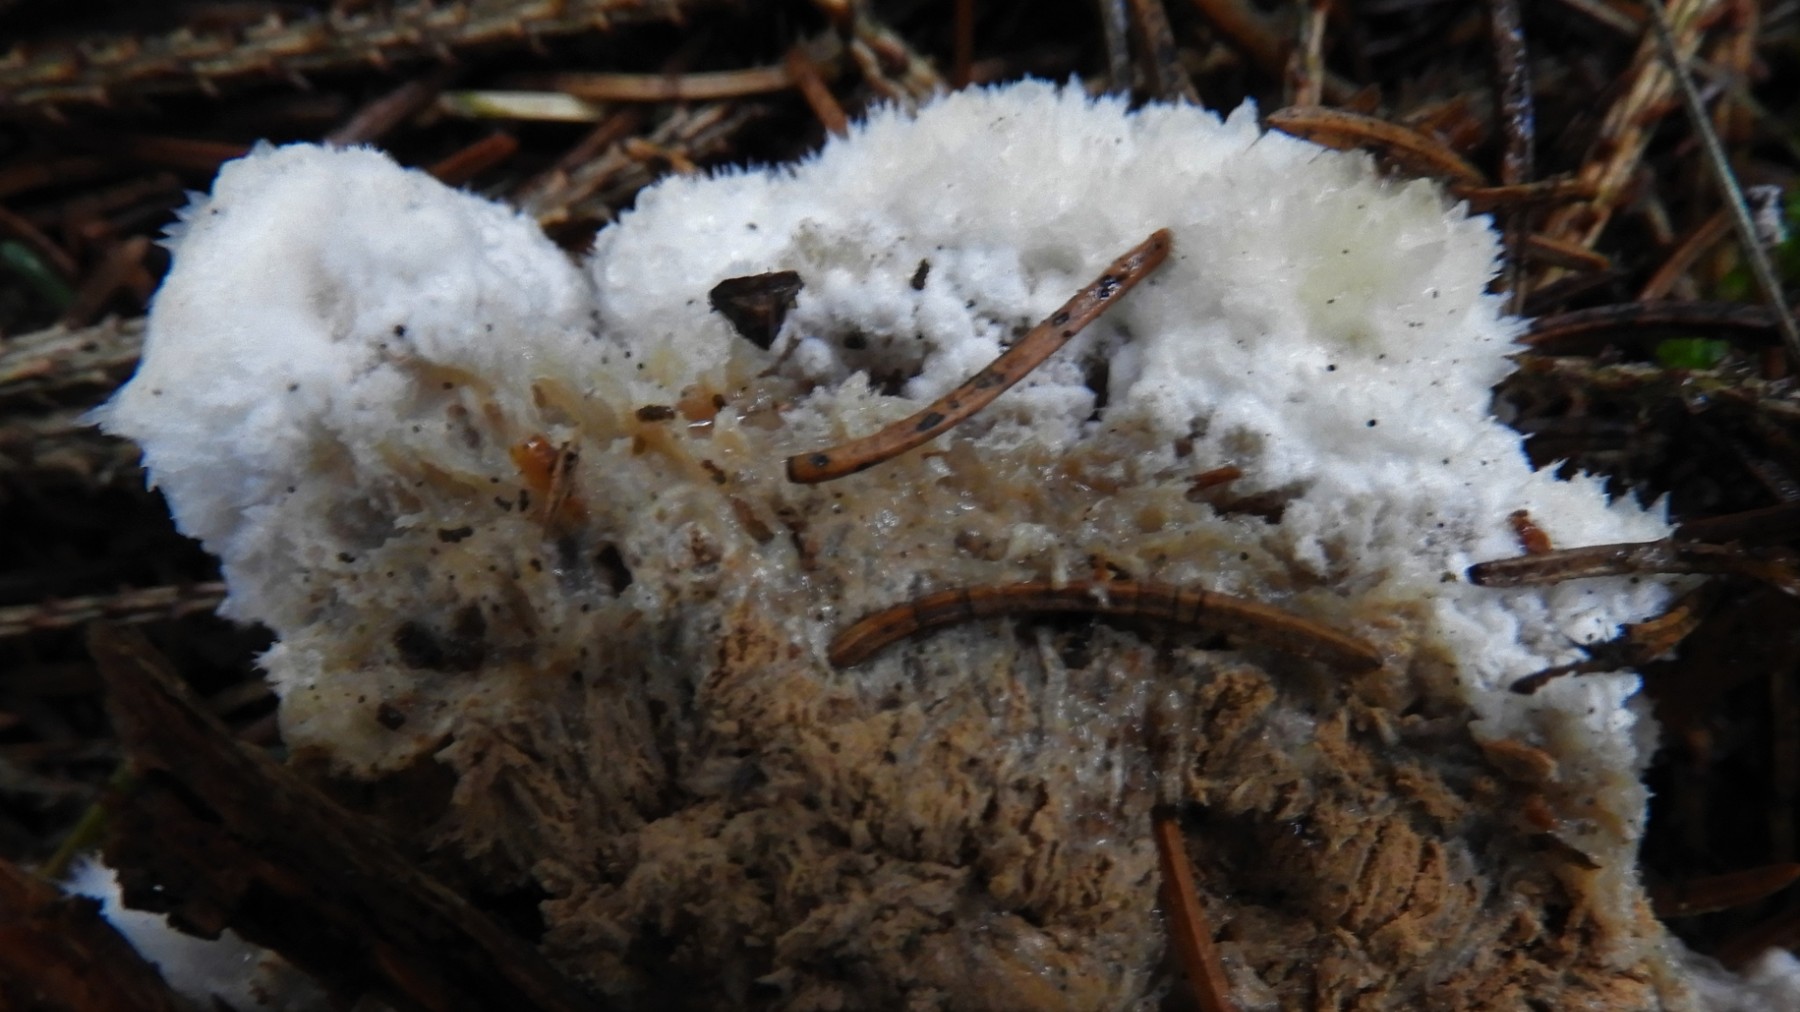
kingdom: Fungi
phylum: Basidiomycota
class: Agaricomycetes
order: Polyporales
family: Dacryobolaceae
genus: Postia
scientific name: Postia ptychogaster
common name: støvende kødporesvamp
